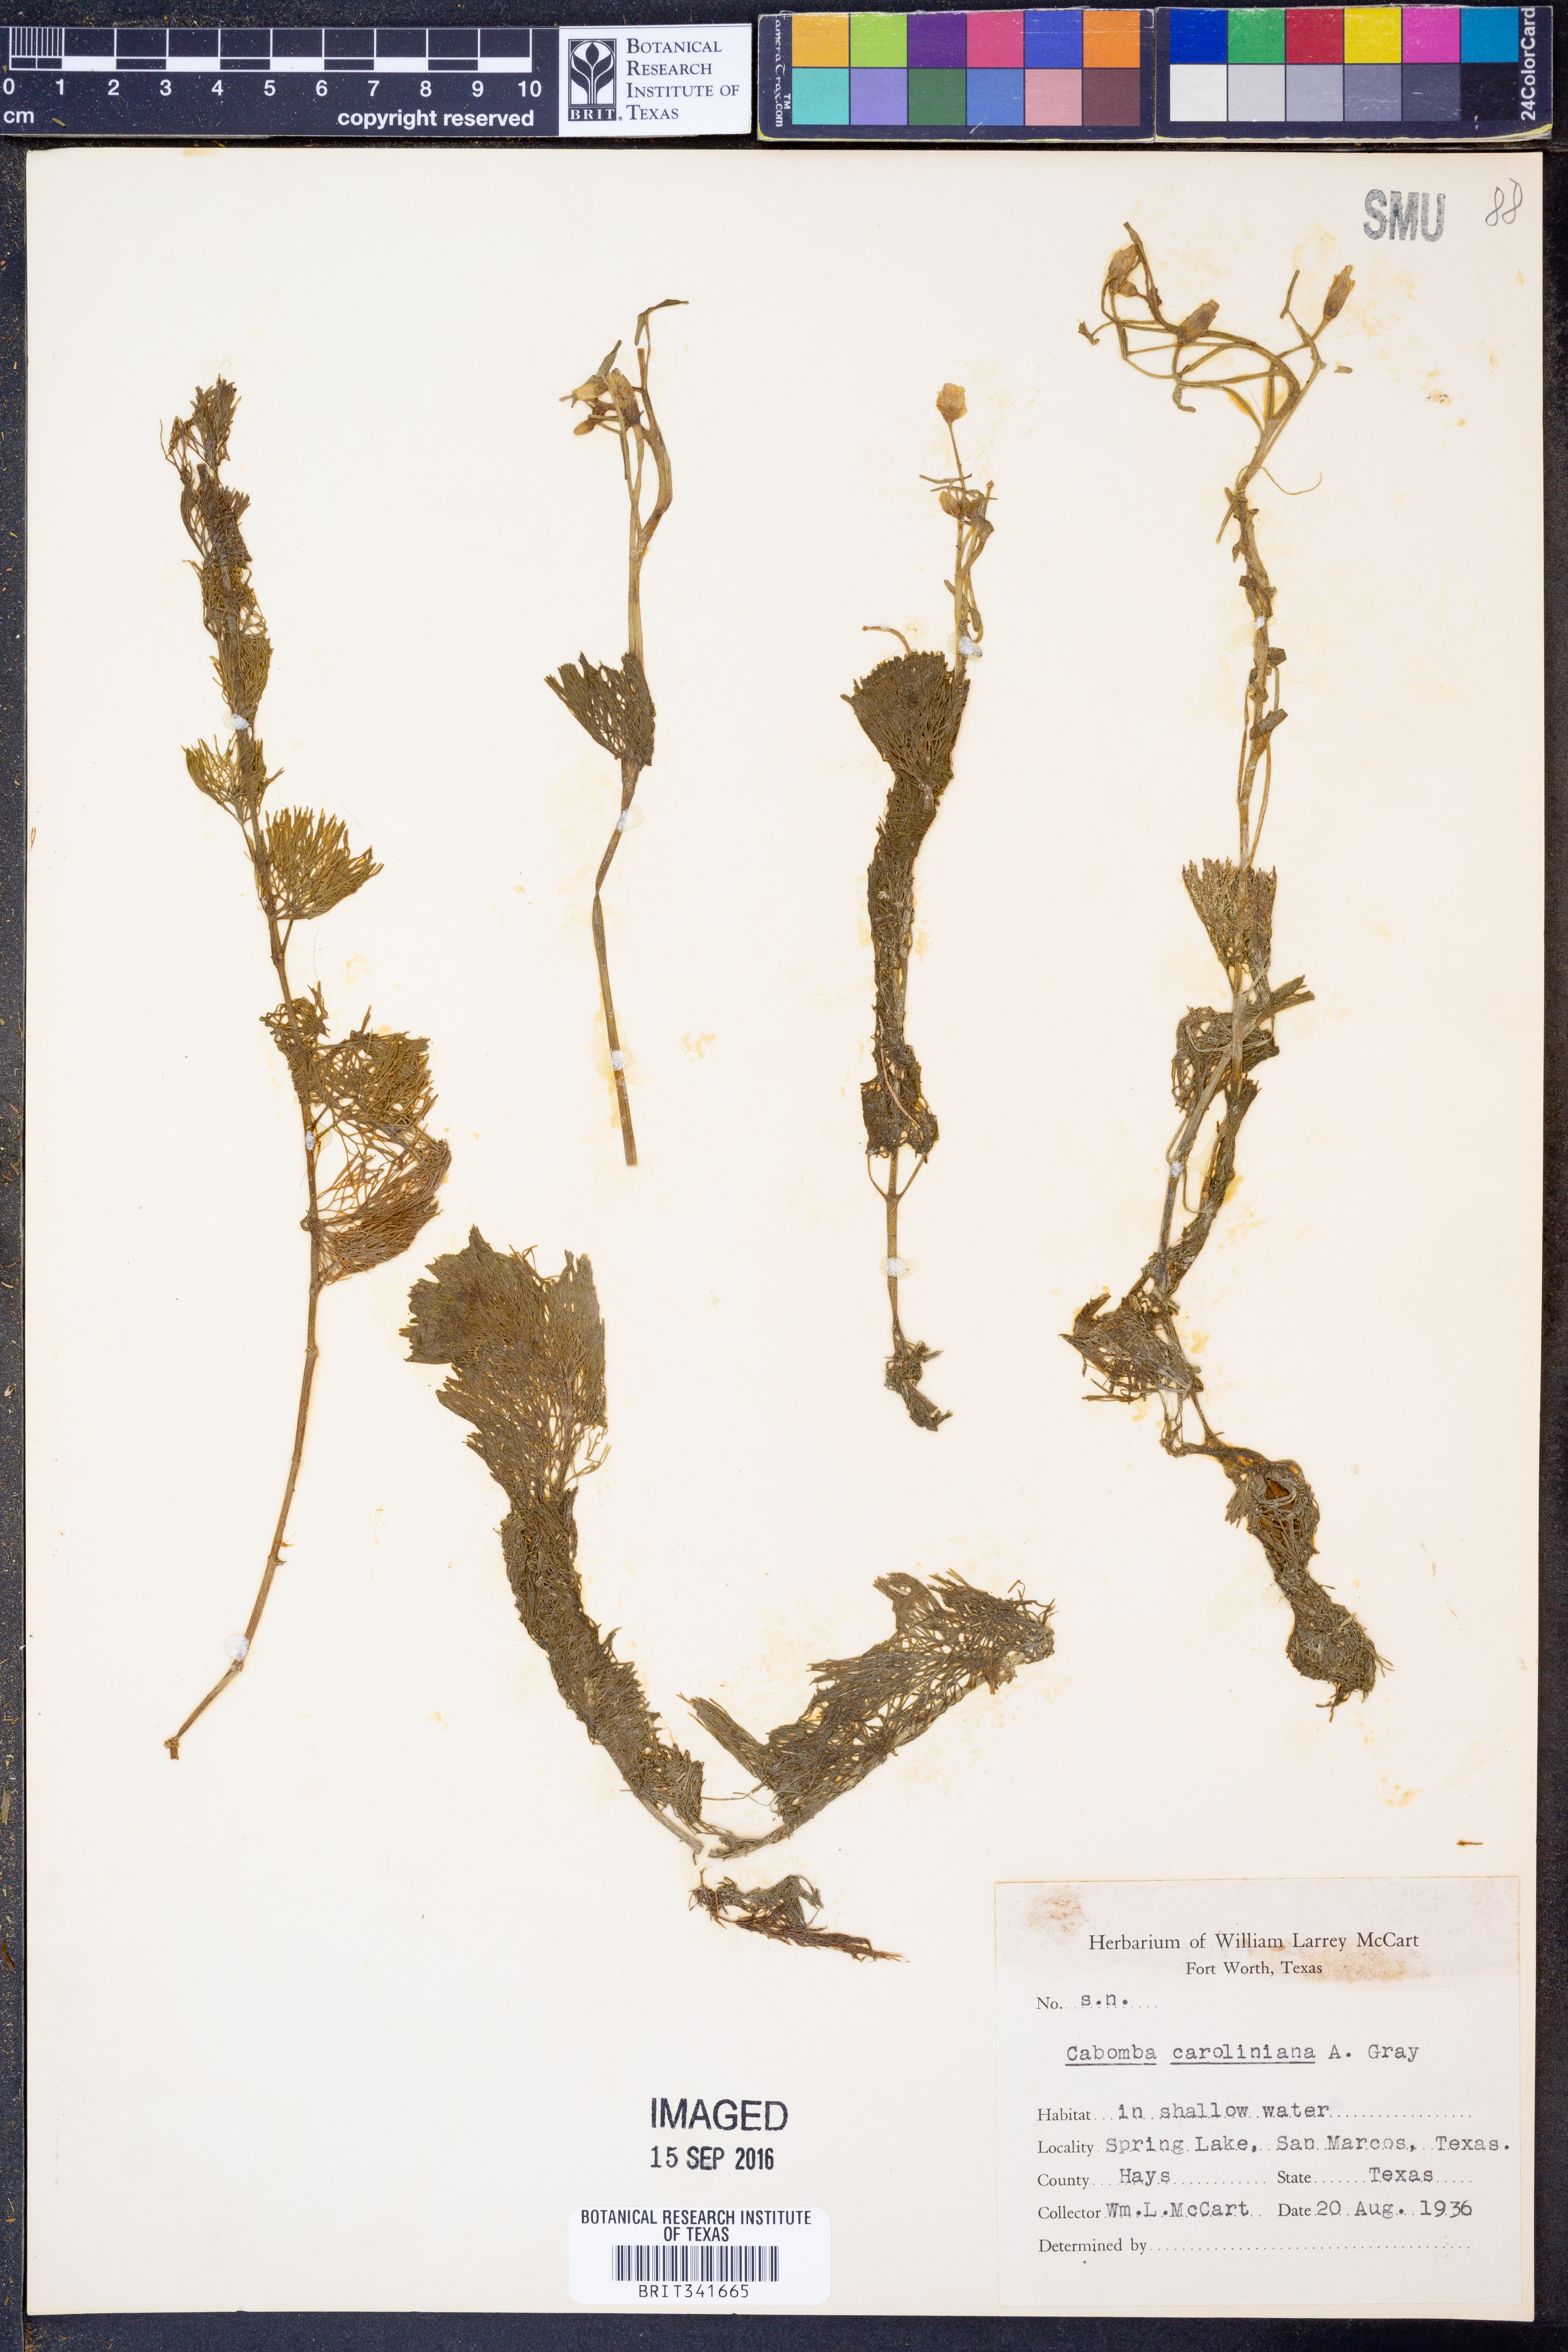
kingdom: Plantae
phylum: Tracheophyta
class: Magnoliopsida
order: Nymphaeales
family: Cabombaceae
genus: Cabomba
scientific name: Cabomba caroliniana
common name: Fanwort
